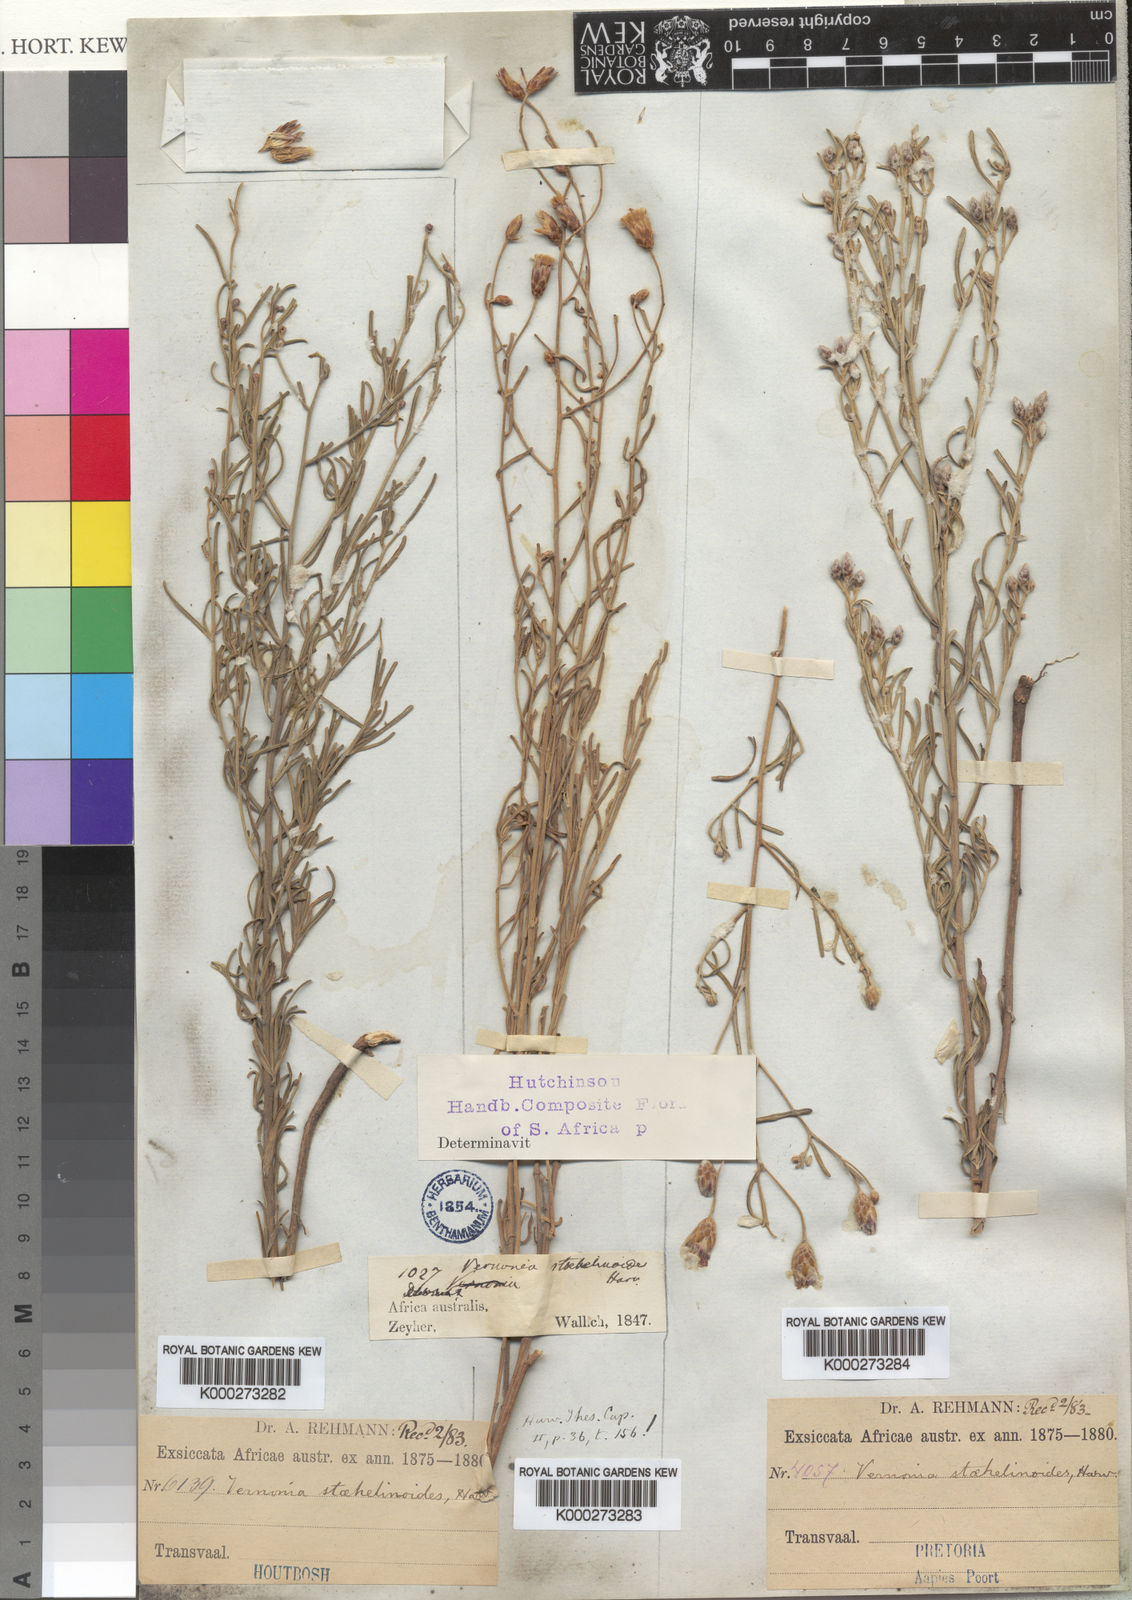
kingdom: Plantae
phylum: Tracheophyta
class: Magnoliopsida
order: Asterales
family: Asteraceae
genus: Oocephala
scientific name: Oocephala staehelinoides
